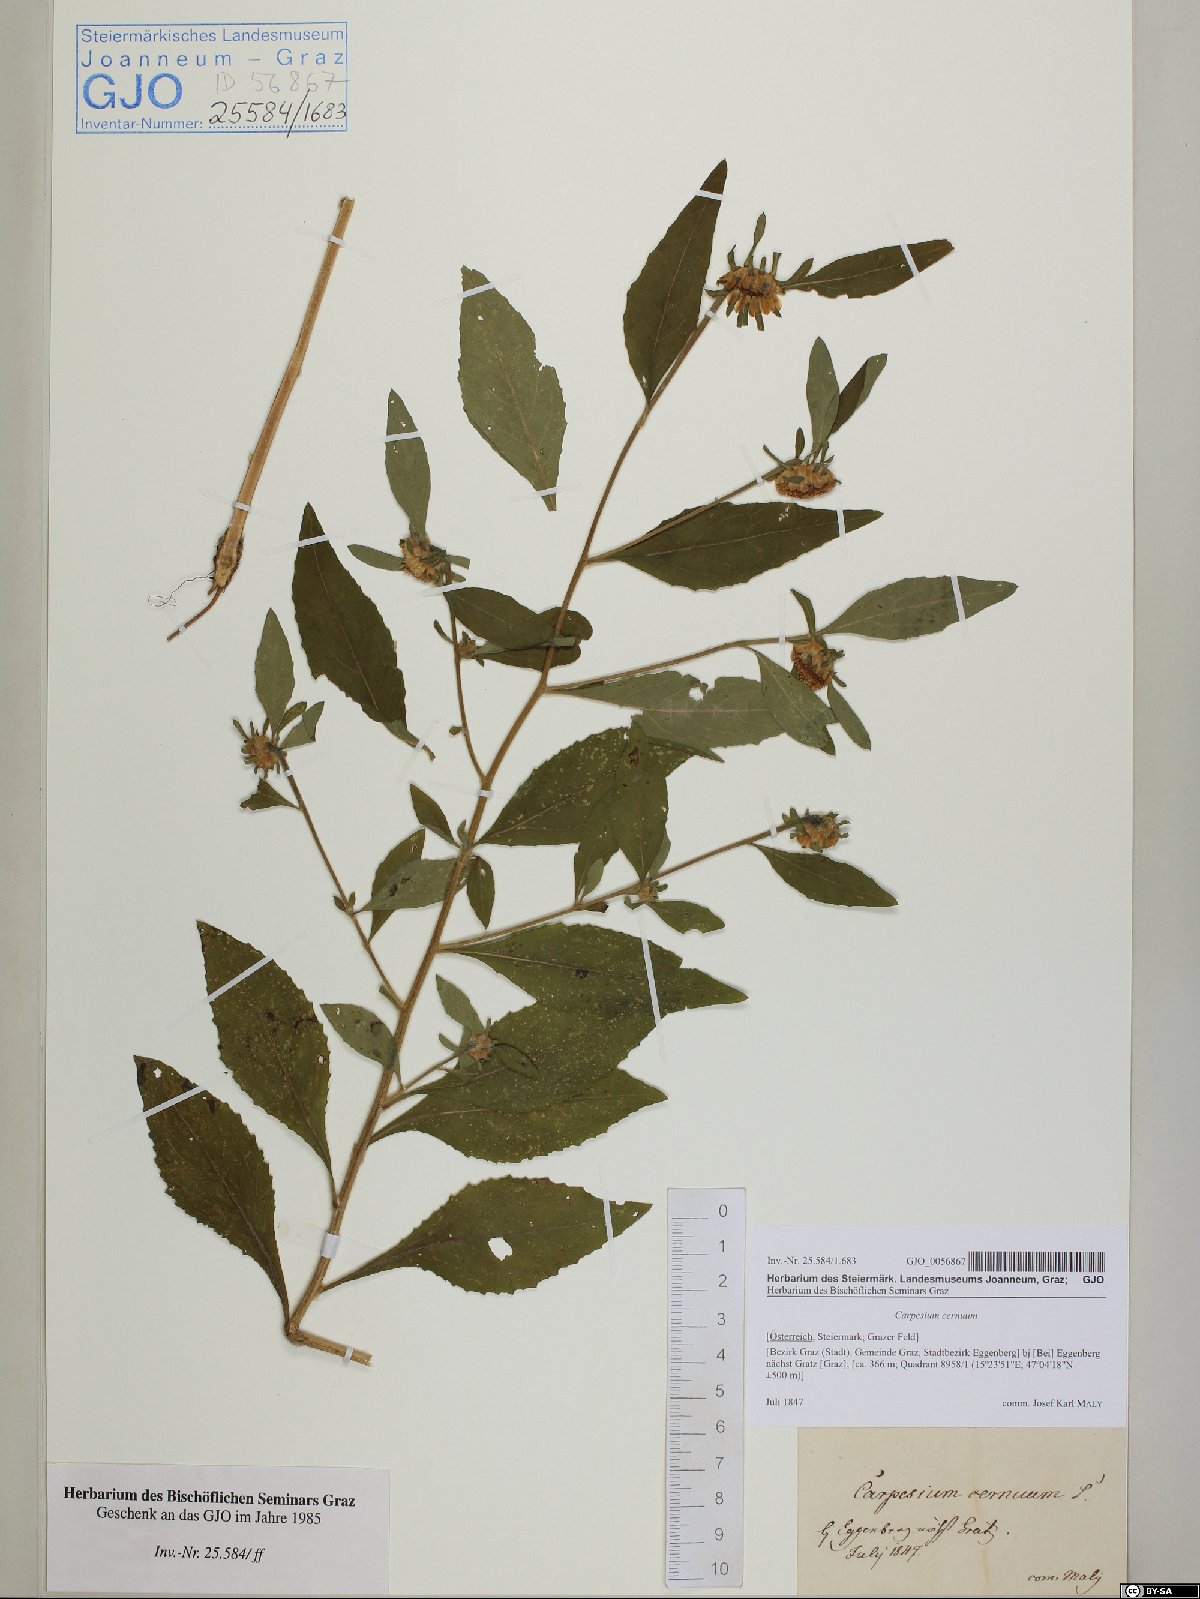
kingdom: Plantae
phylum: Tracheophyta
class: Magnoliopsida
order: Asterales
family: Asteraceae
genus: Carpesium
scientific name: Carpesium cernuum
